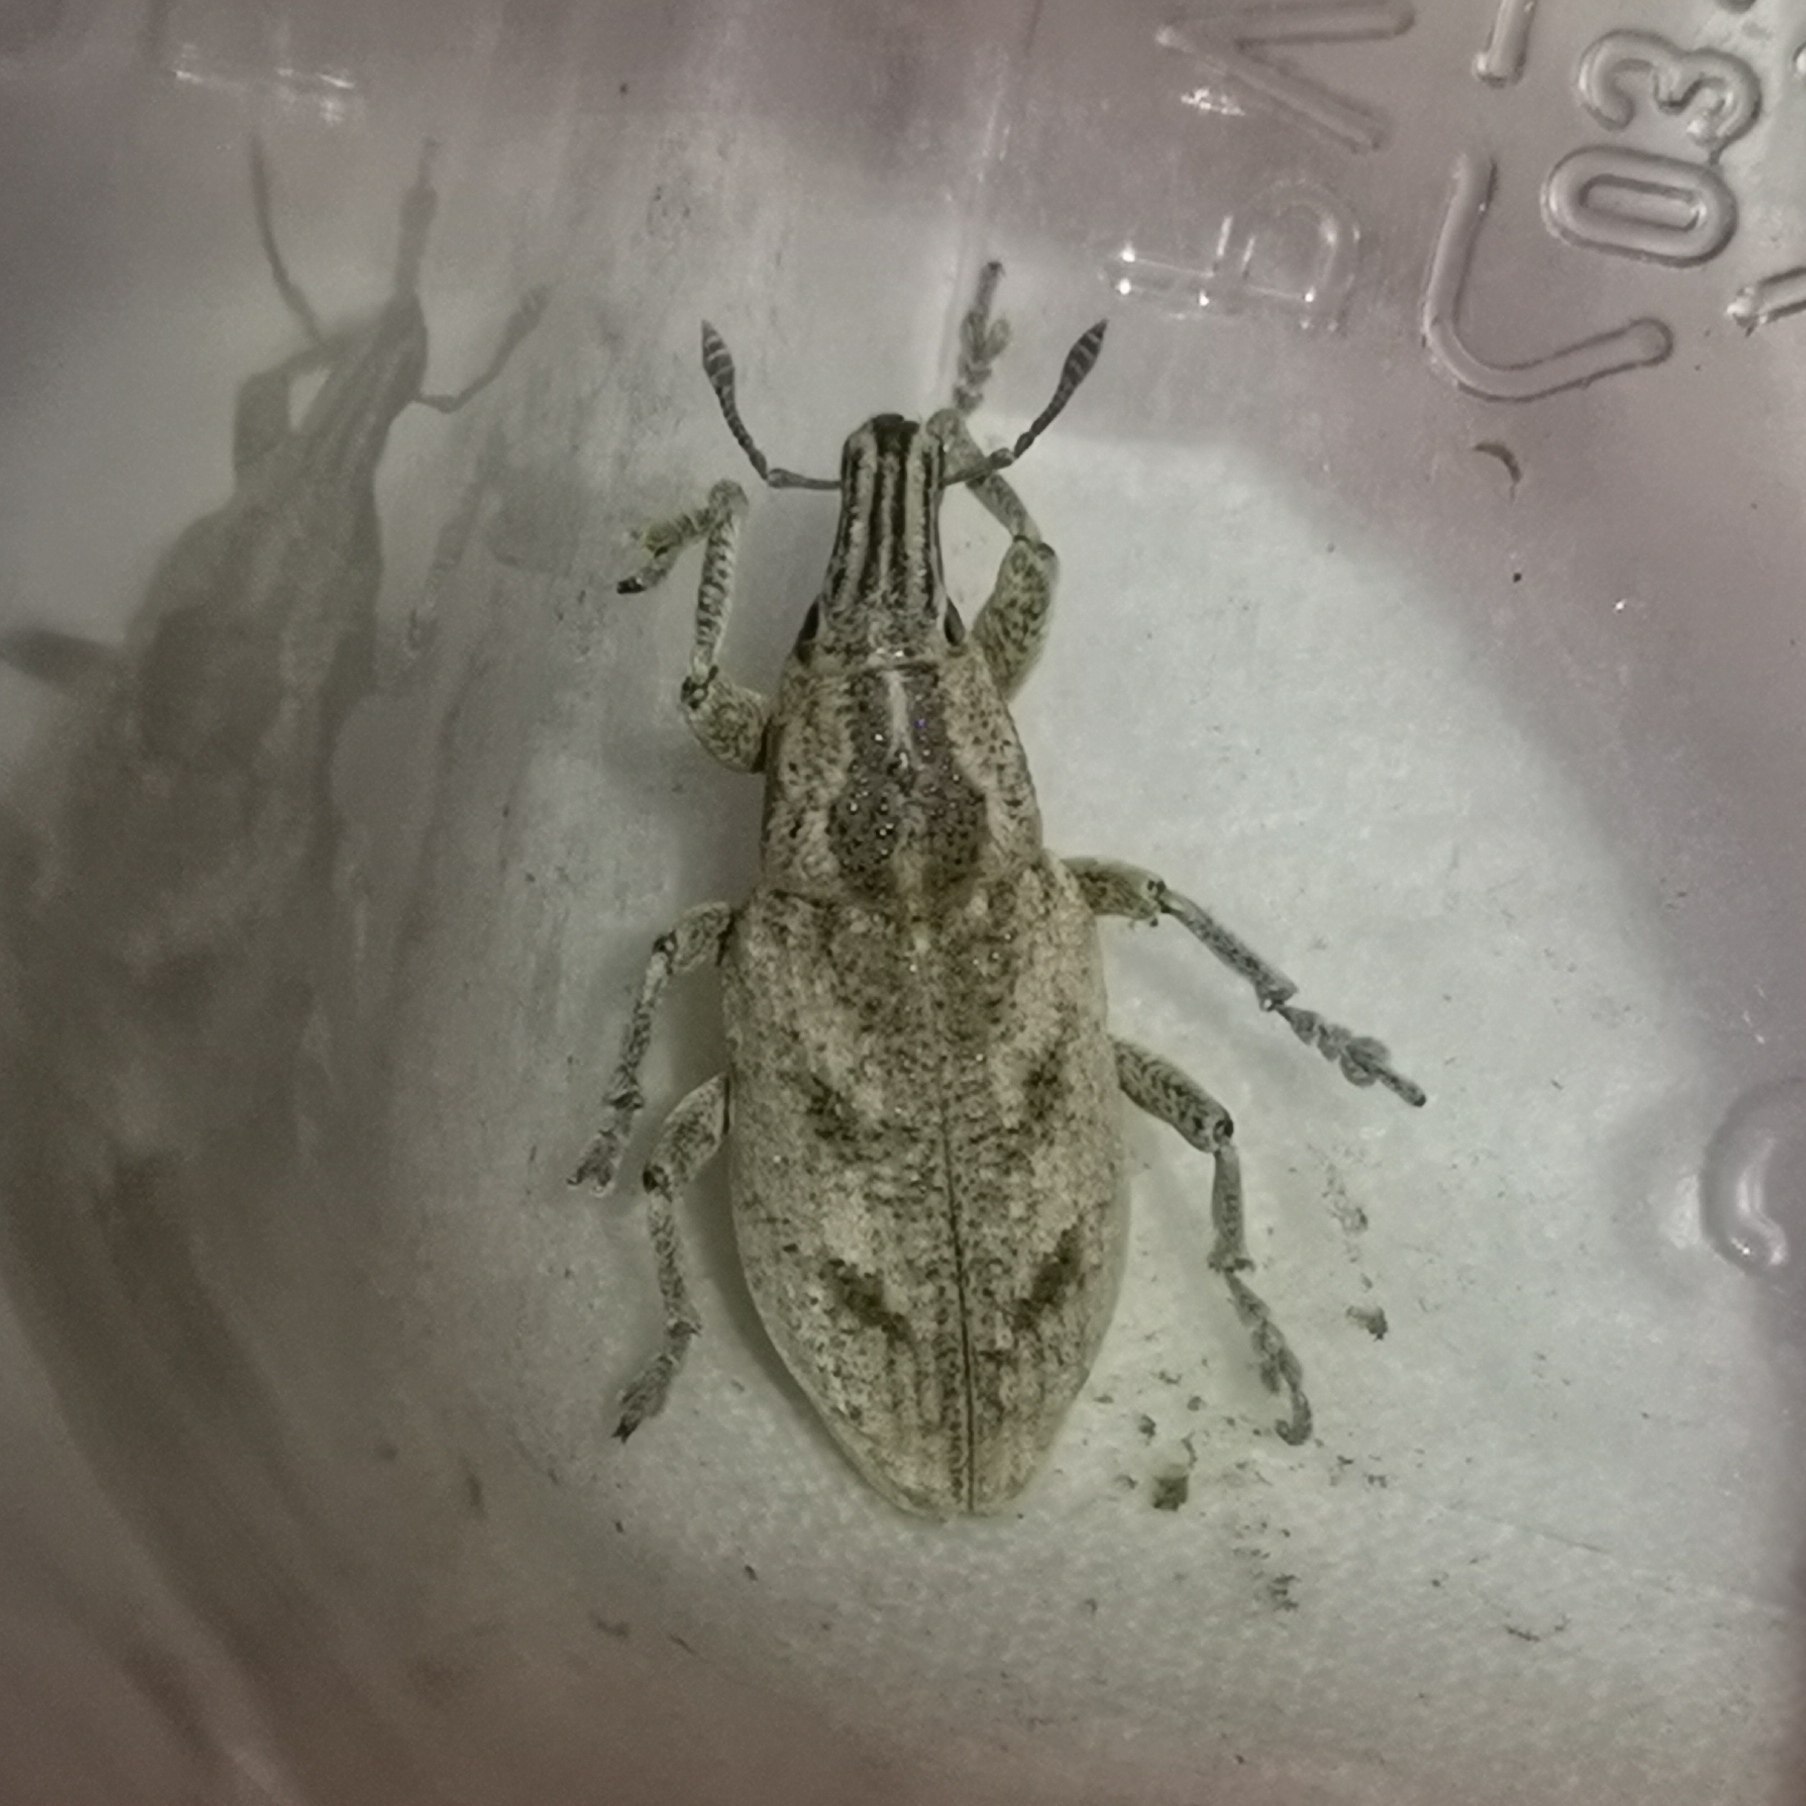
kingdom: Animalia
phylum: Arthropoda
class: Insecta
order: Coleoptera
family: Curculionidae
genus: Cleonis
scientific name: Cleonis pigra
